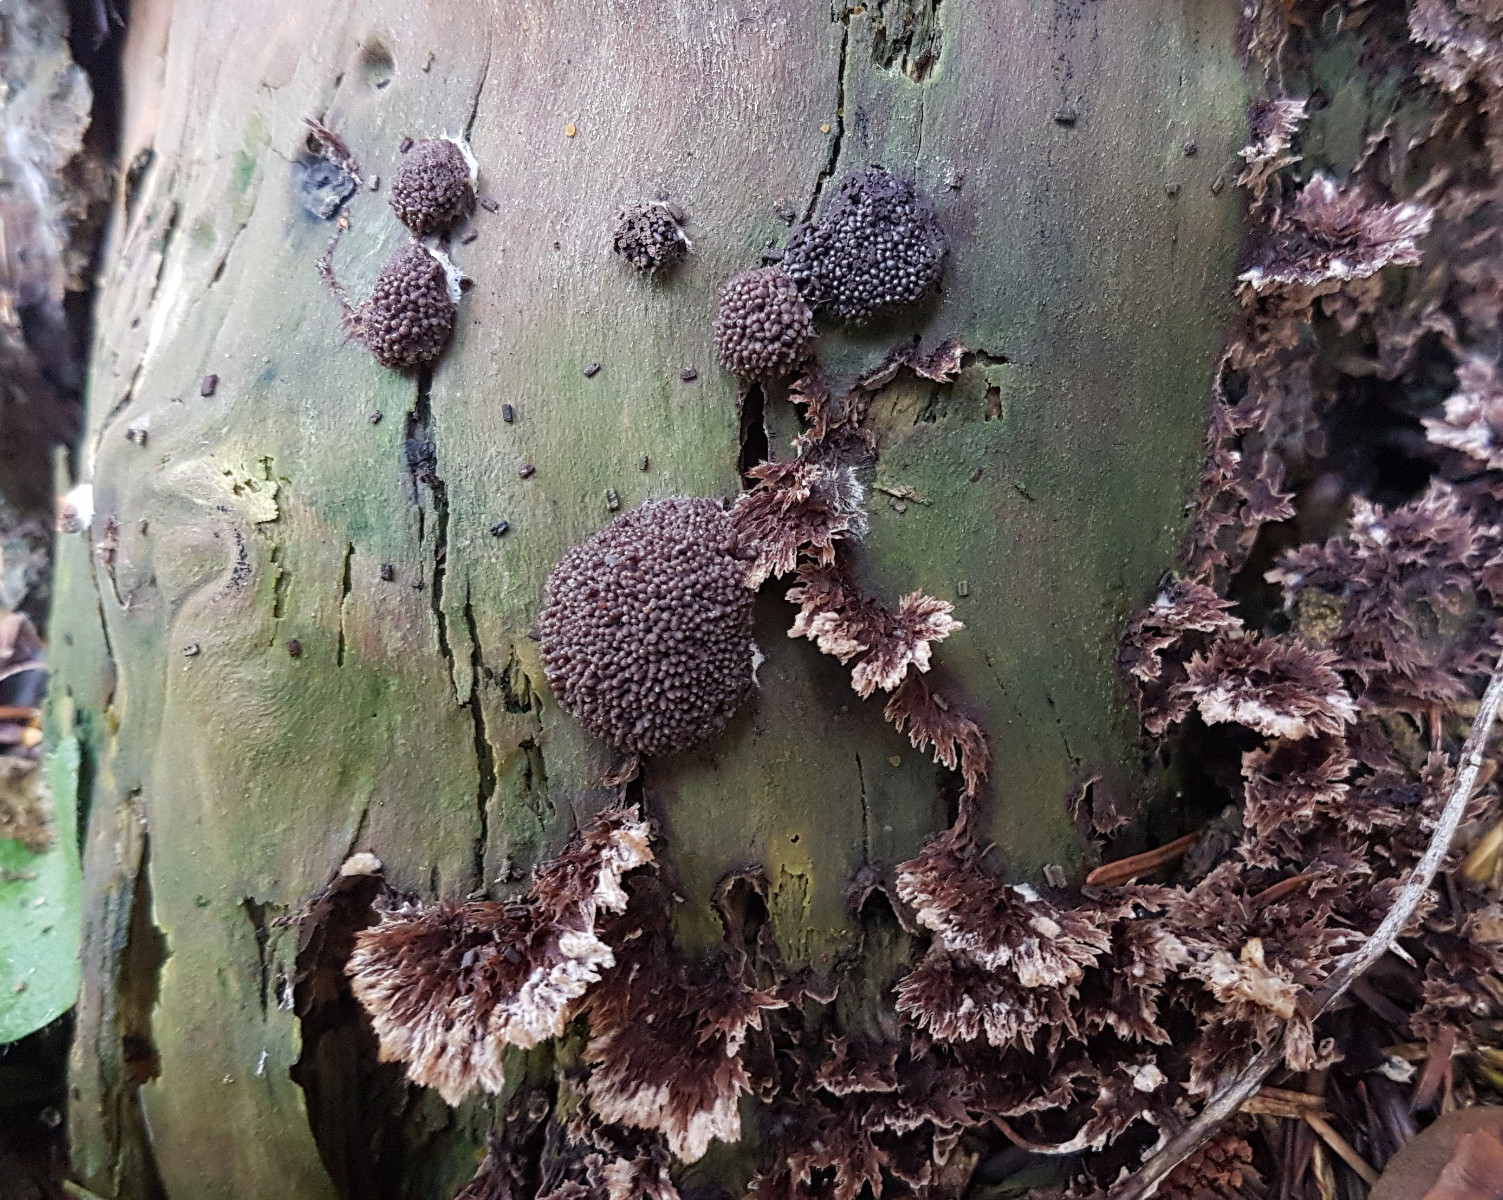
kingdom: Fungi
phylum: Basidiomycota
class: Agaricomycetes
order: Thelephorales
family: Thelephoraceae
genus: Thelephora
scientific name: Thelephora terrestris
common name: fliget frynsesvamp
